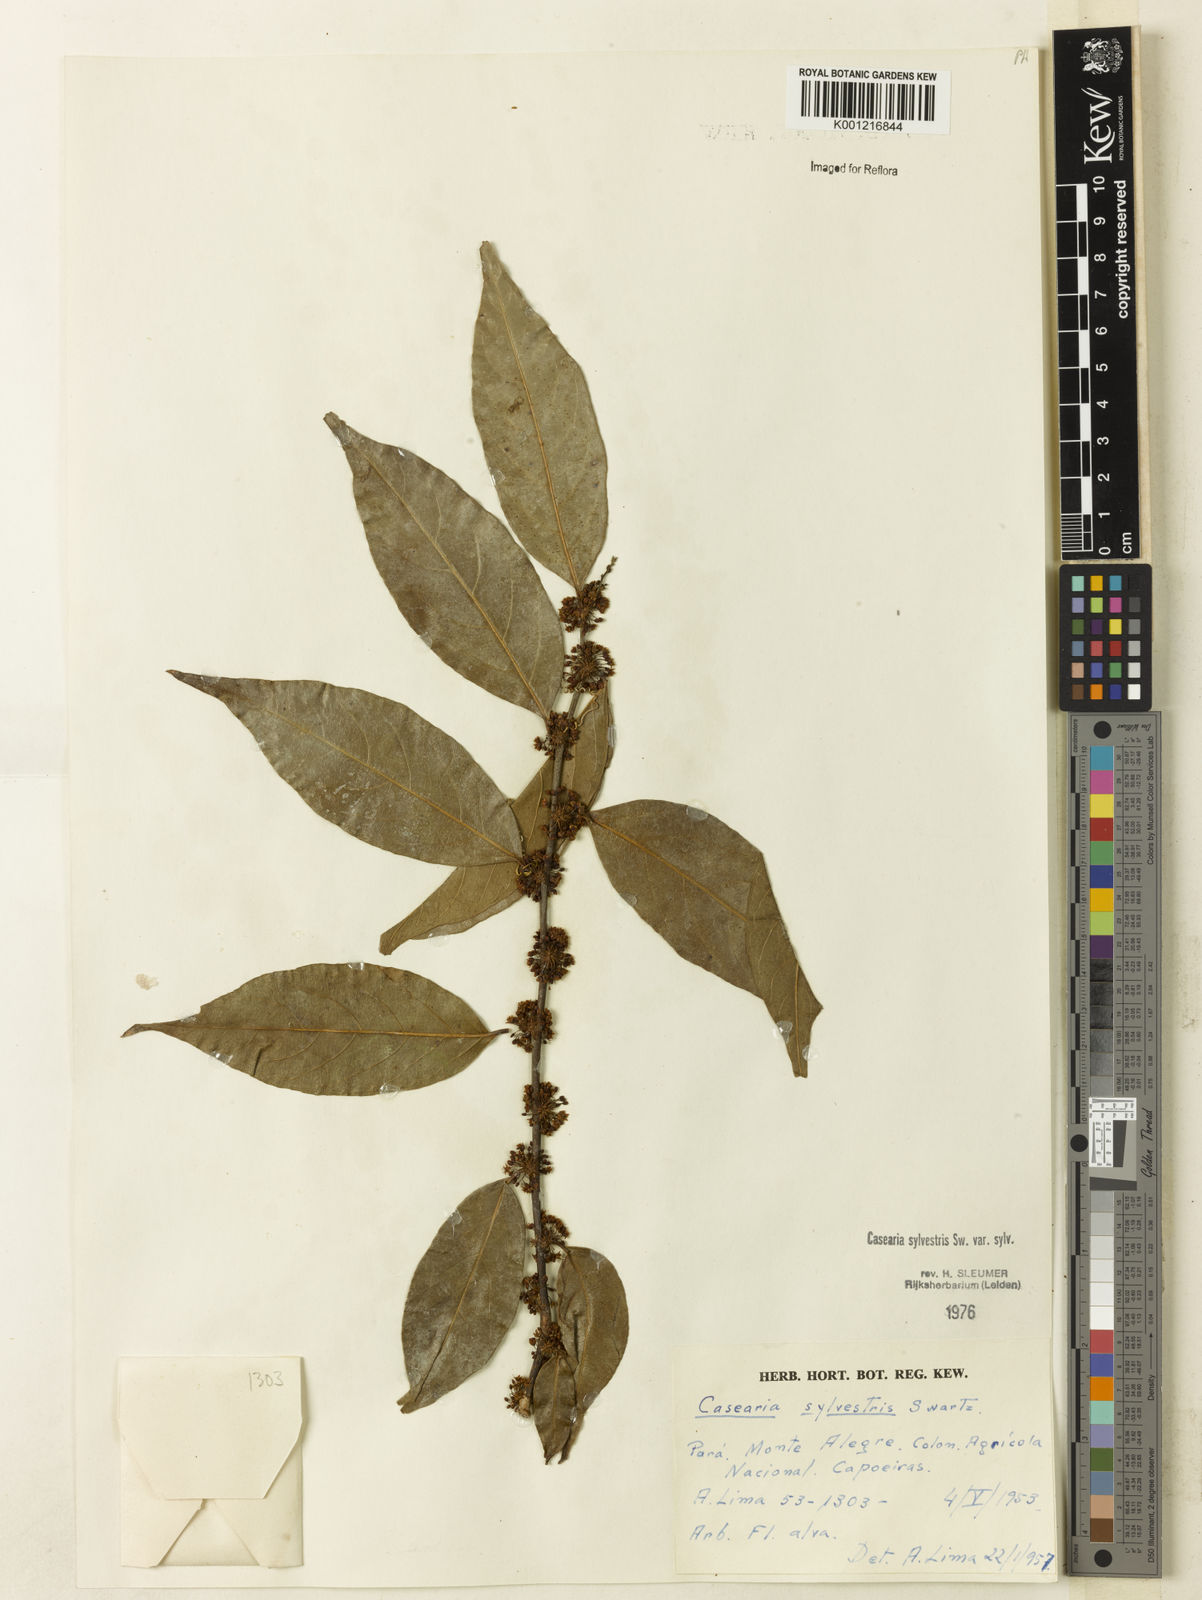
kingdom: Plantae
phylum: Tracheophyta
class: Magnoliopsida
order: Malpighiales
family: Salicaceae
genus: Casearia
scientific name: Casearia sylvestris
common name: Wild sage
